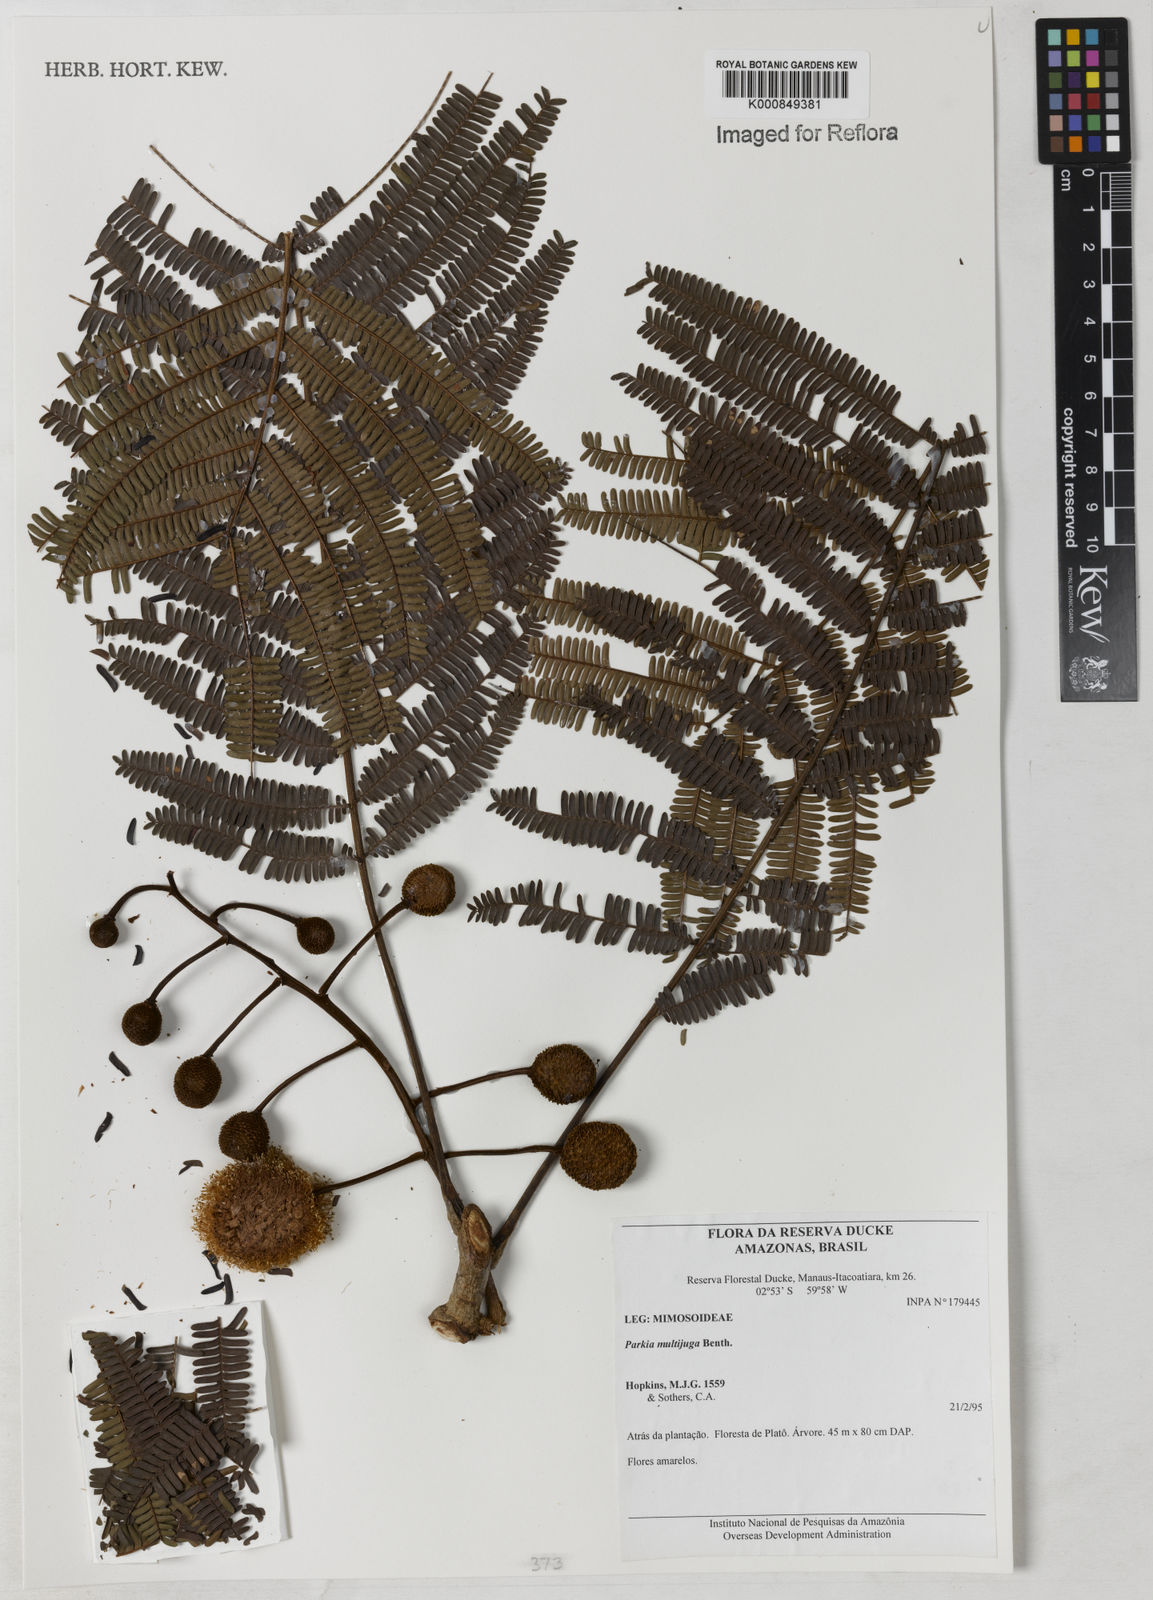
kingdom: Plantae
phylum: Tracheophyta
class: Magnoliopsida
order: Fabales
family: Fabaceae
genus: Parkia
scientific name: Parkia multijuga
